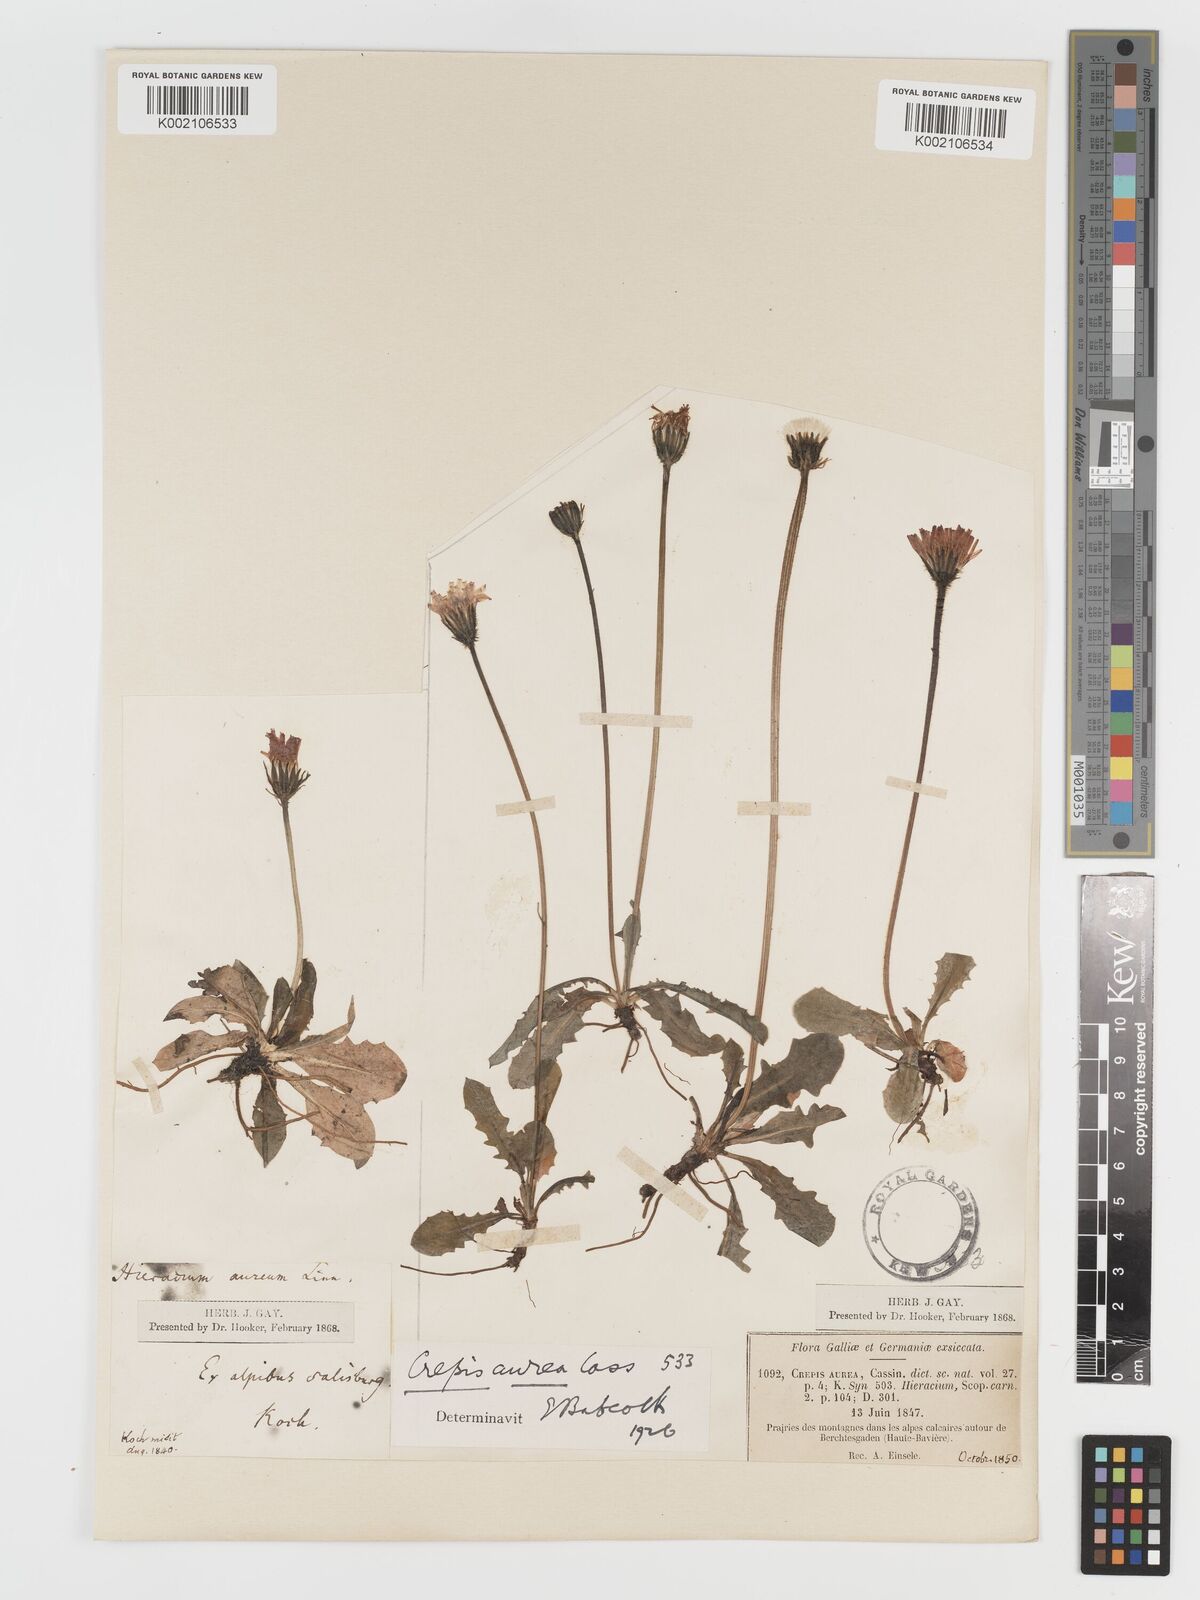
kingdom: Plantae
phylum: Tracheophyta
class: Magnoliopsida
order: Asterales
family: Asteraceae
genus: Crepis
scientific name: Crepis aurea
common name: Golden hawk's-beard
